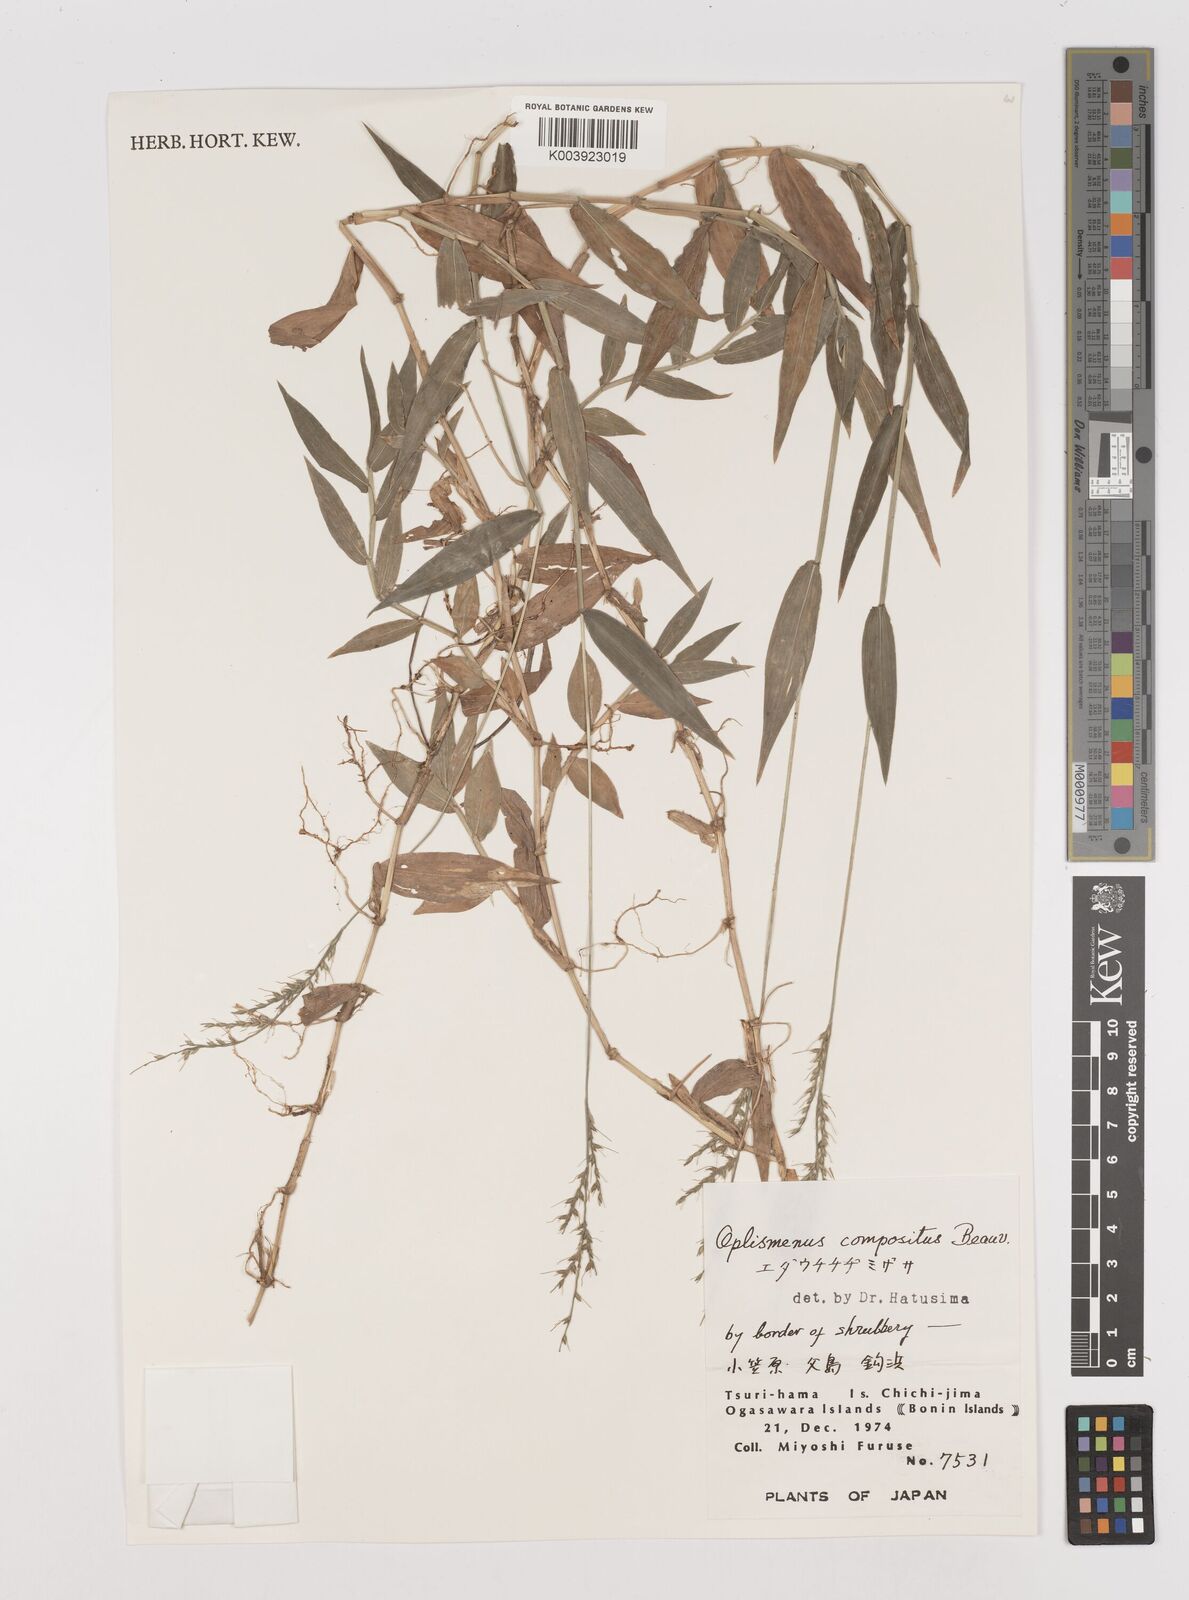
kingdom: Plantae
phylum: Tracheophyta
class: Liliopsida
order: Poales
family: Poaceae
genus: Oplismenus
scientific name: Oplismenus compositus
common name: Running mountain grass
